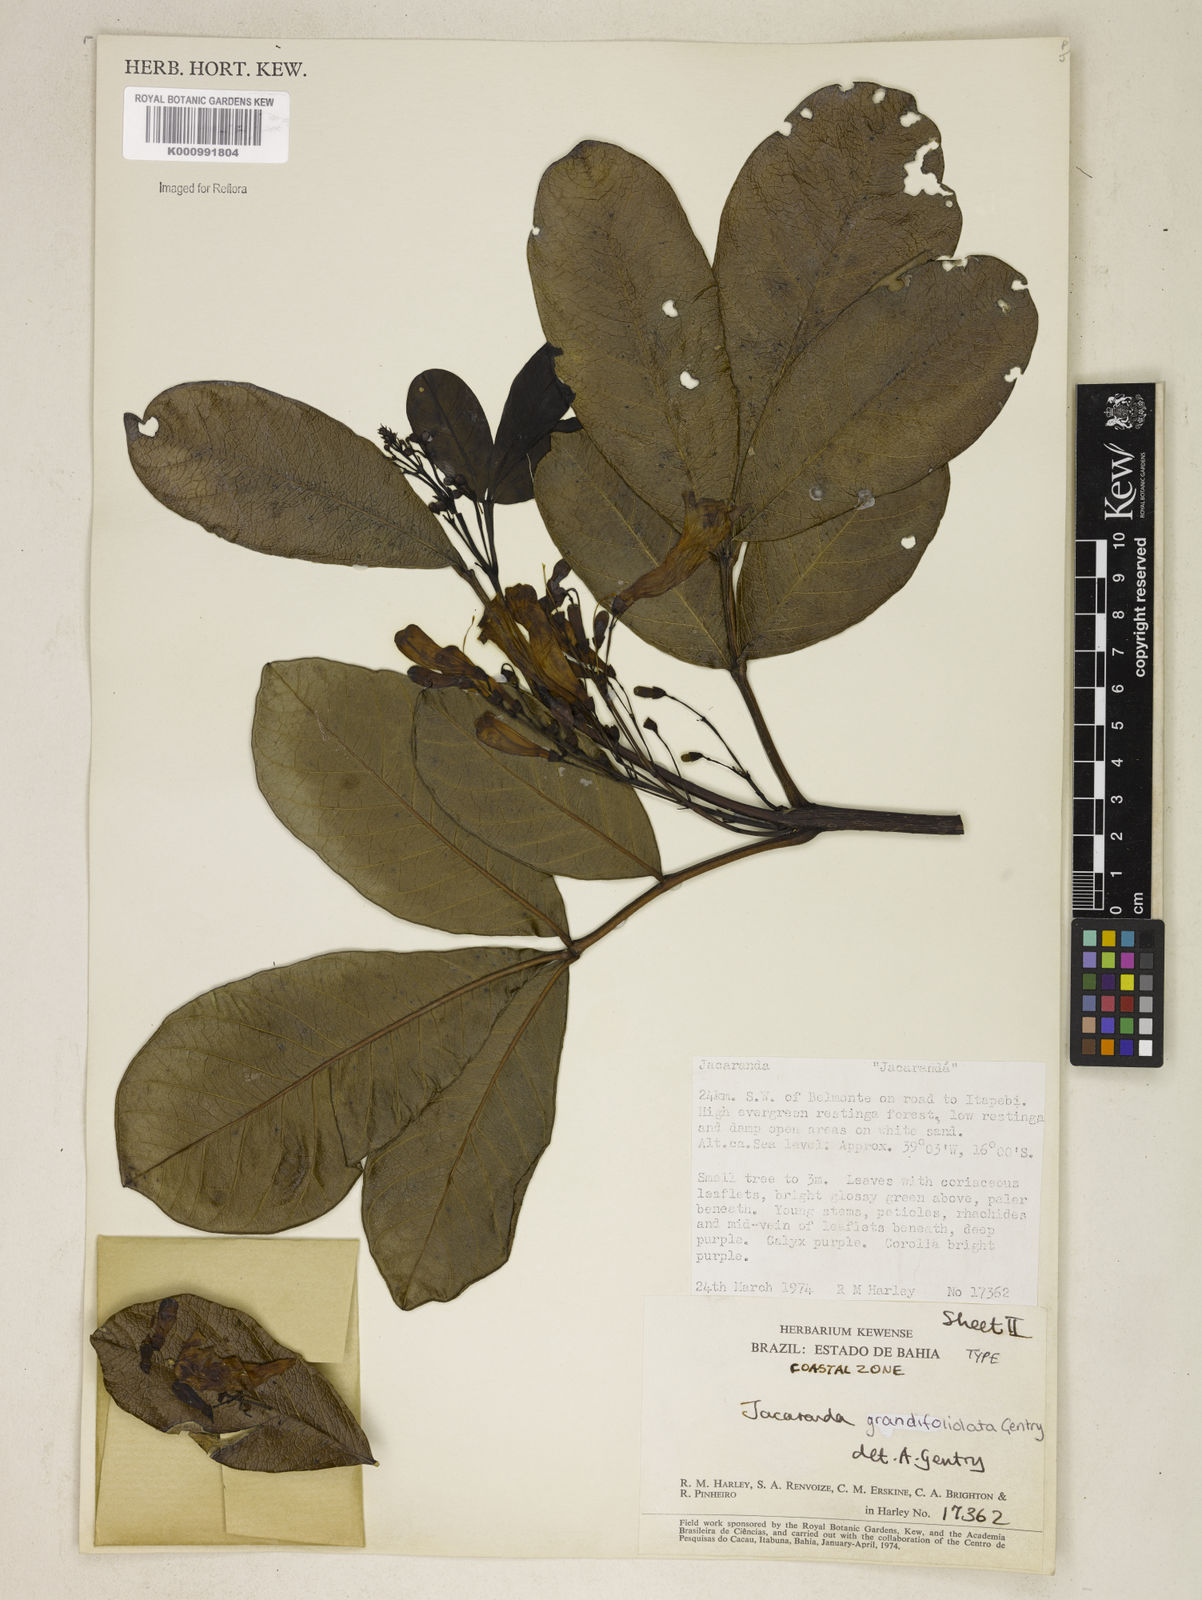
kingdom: Plantae
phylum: Tracheophyta
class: Magnoliopsida
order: Lamiales
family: Bignoniaceae
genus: Jacaranda
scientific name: Jacaranda grandifoliolata
